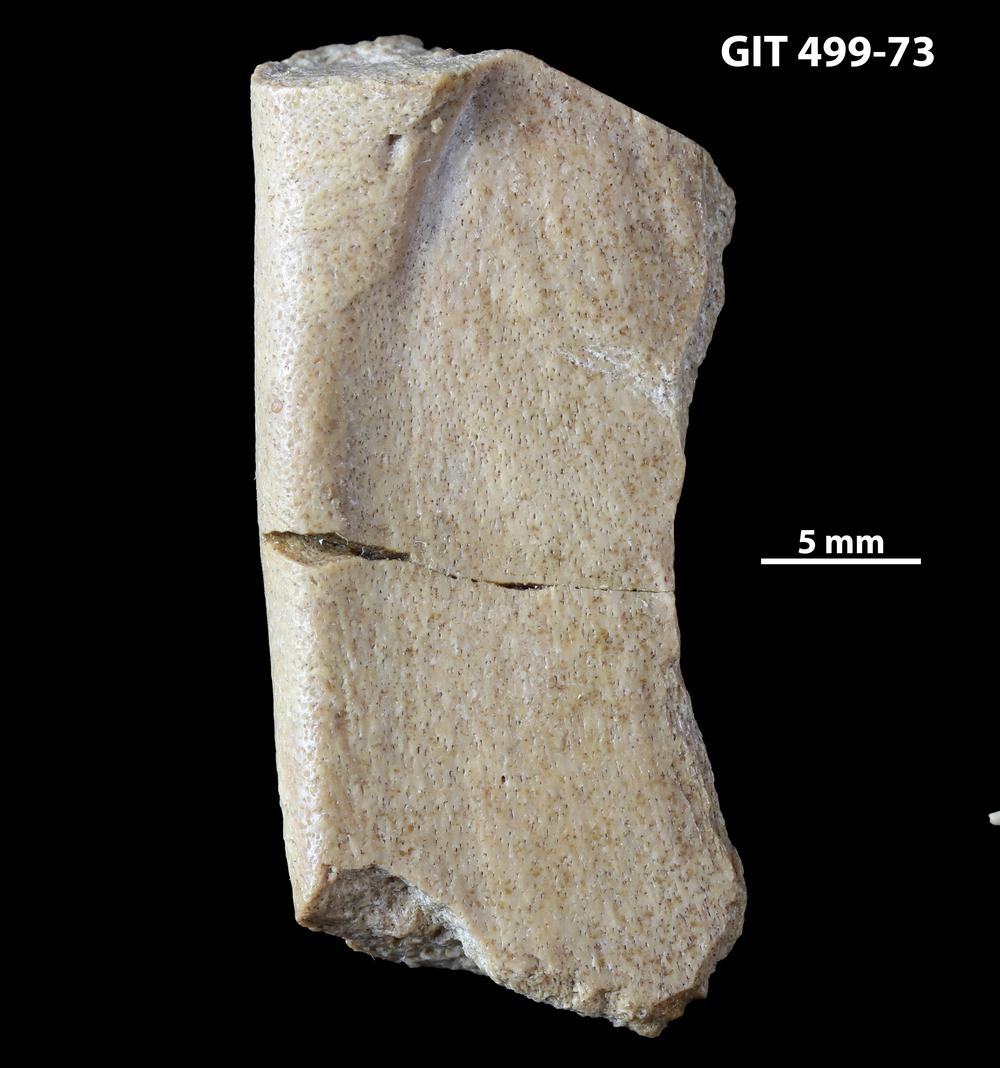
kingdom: Animalia
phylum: Chordata
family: Holoptychiidae
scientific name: Holoptychiidae
